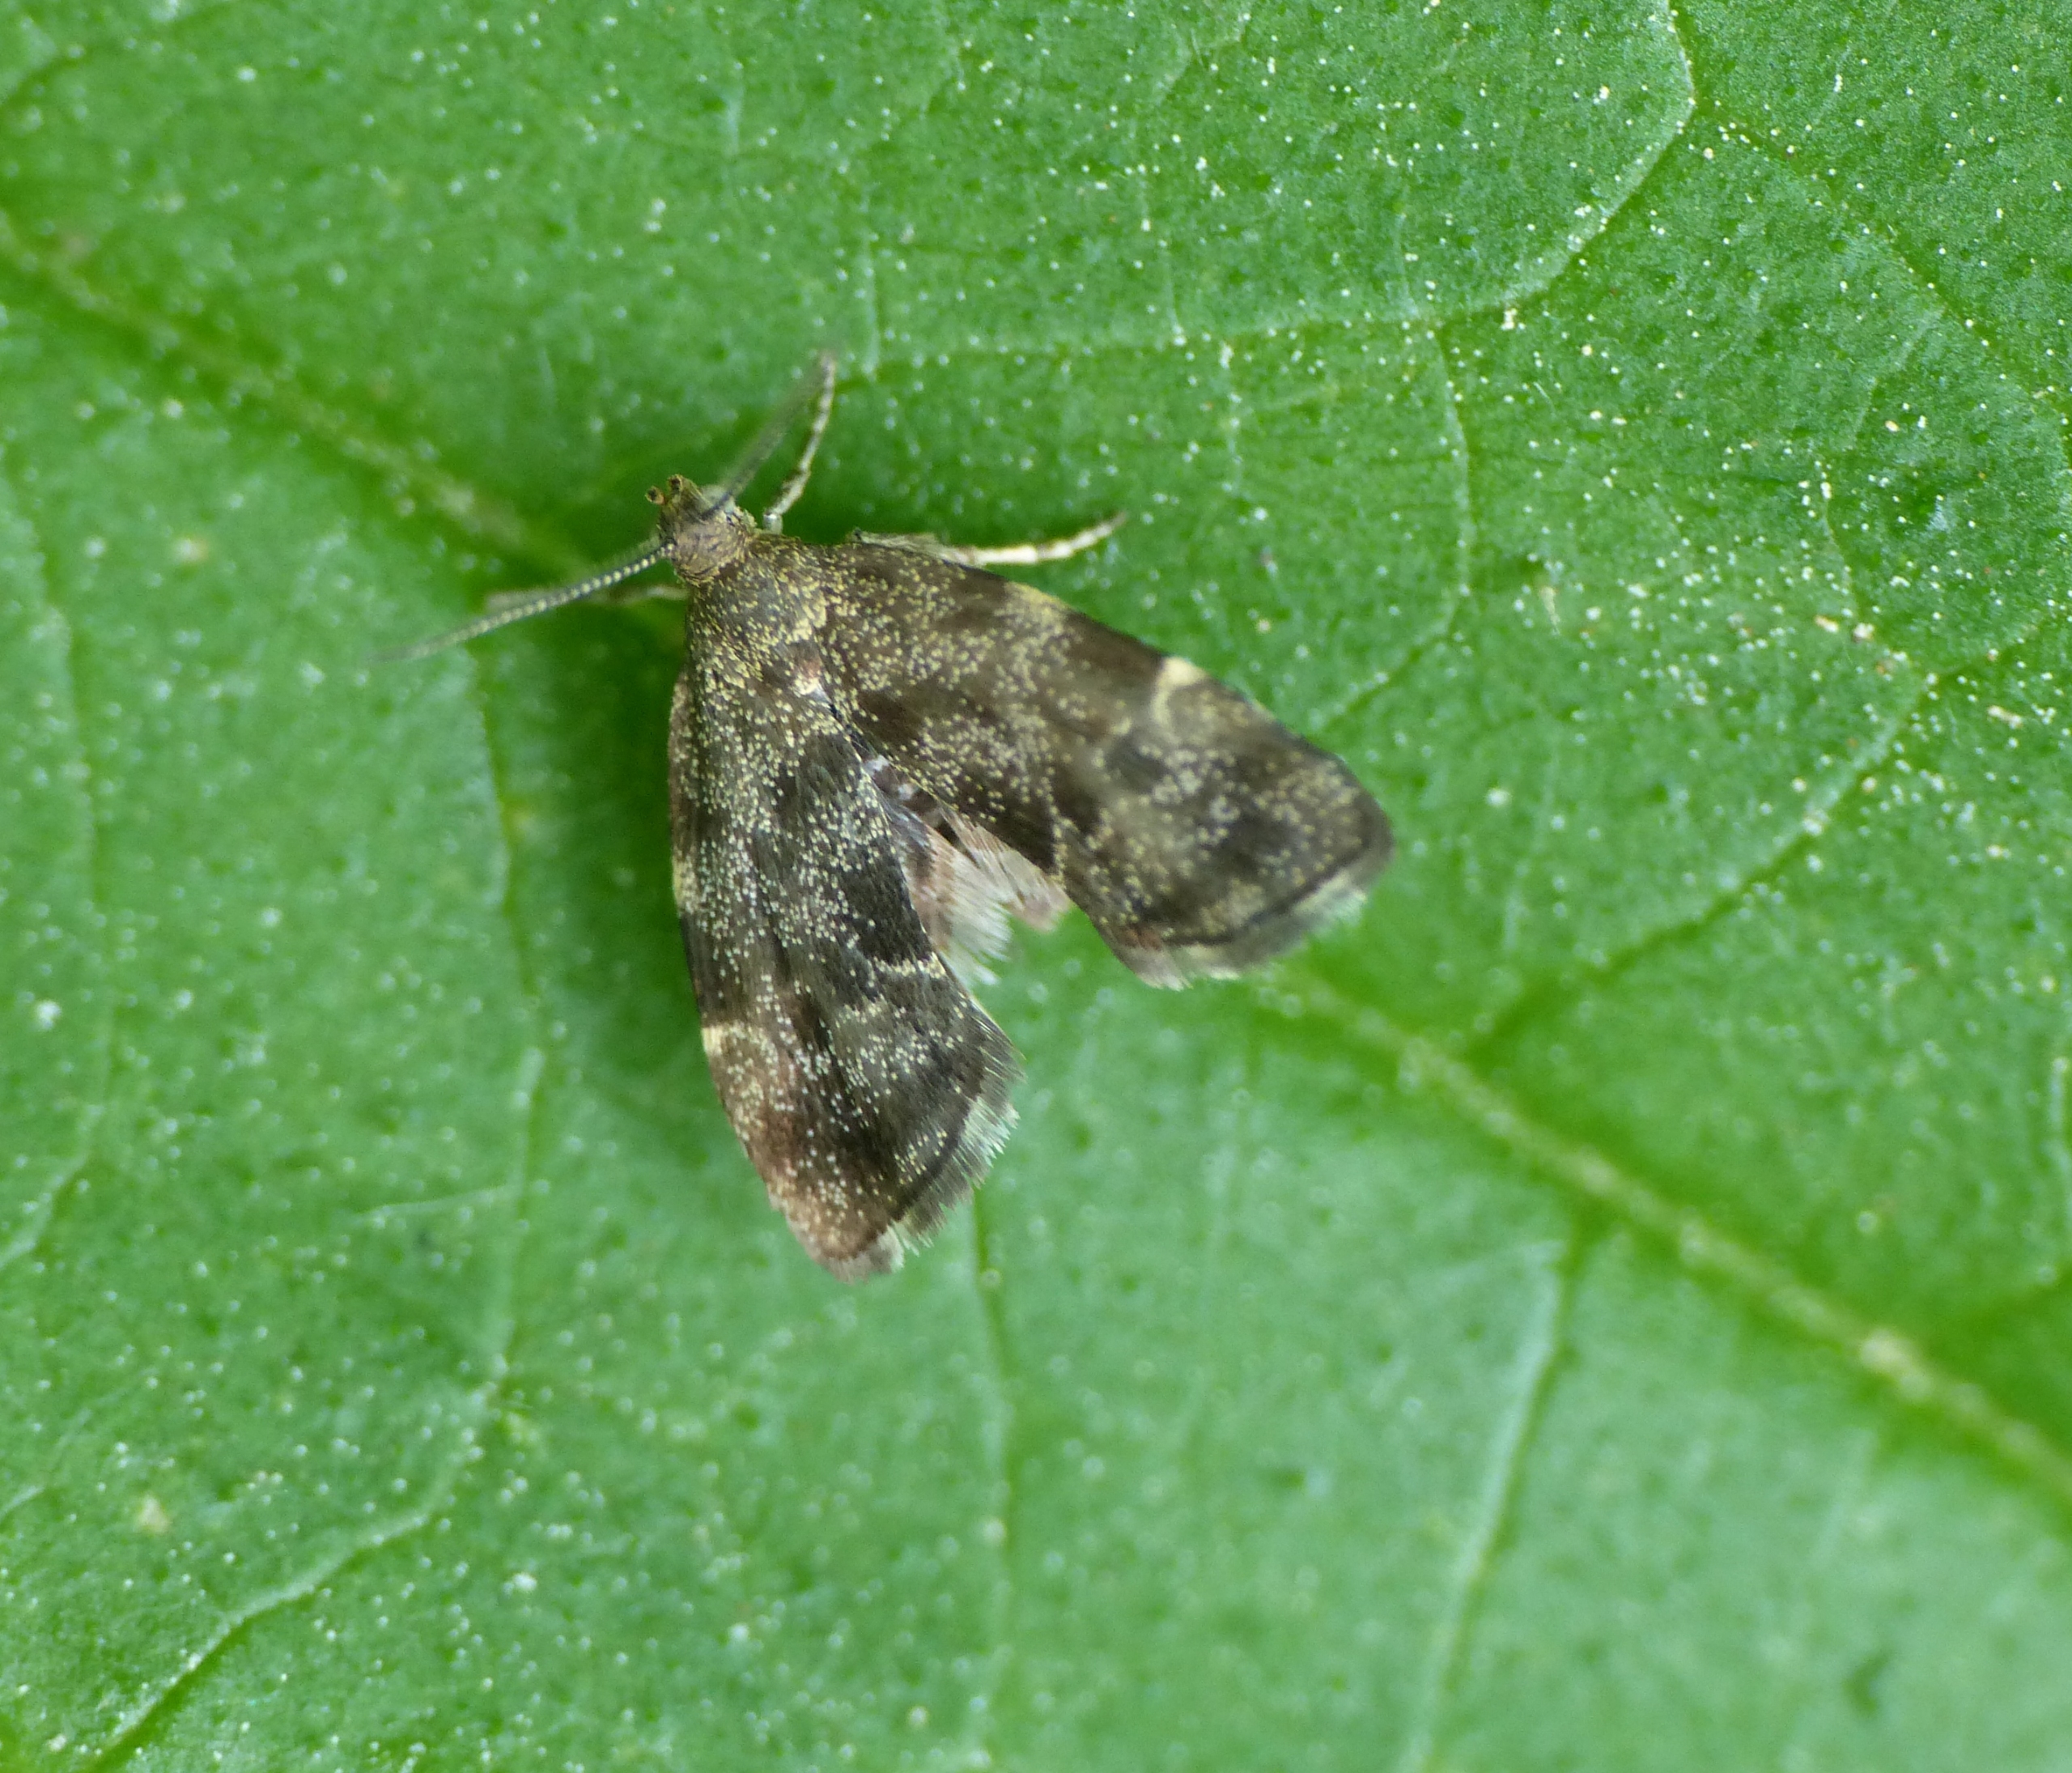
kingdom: Animalia
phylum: Arthropoda
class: Insecta
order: Lepidoptera
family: Choreutidae
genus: Anthophila
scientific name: Anthophila fabriciana
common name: Bredvinget nældevikler
